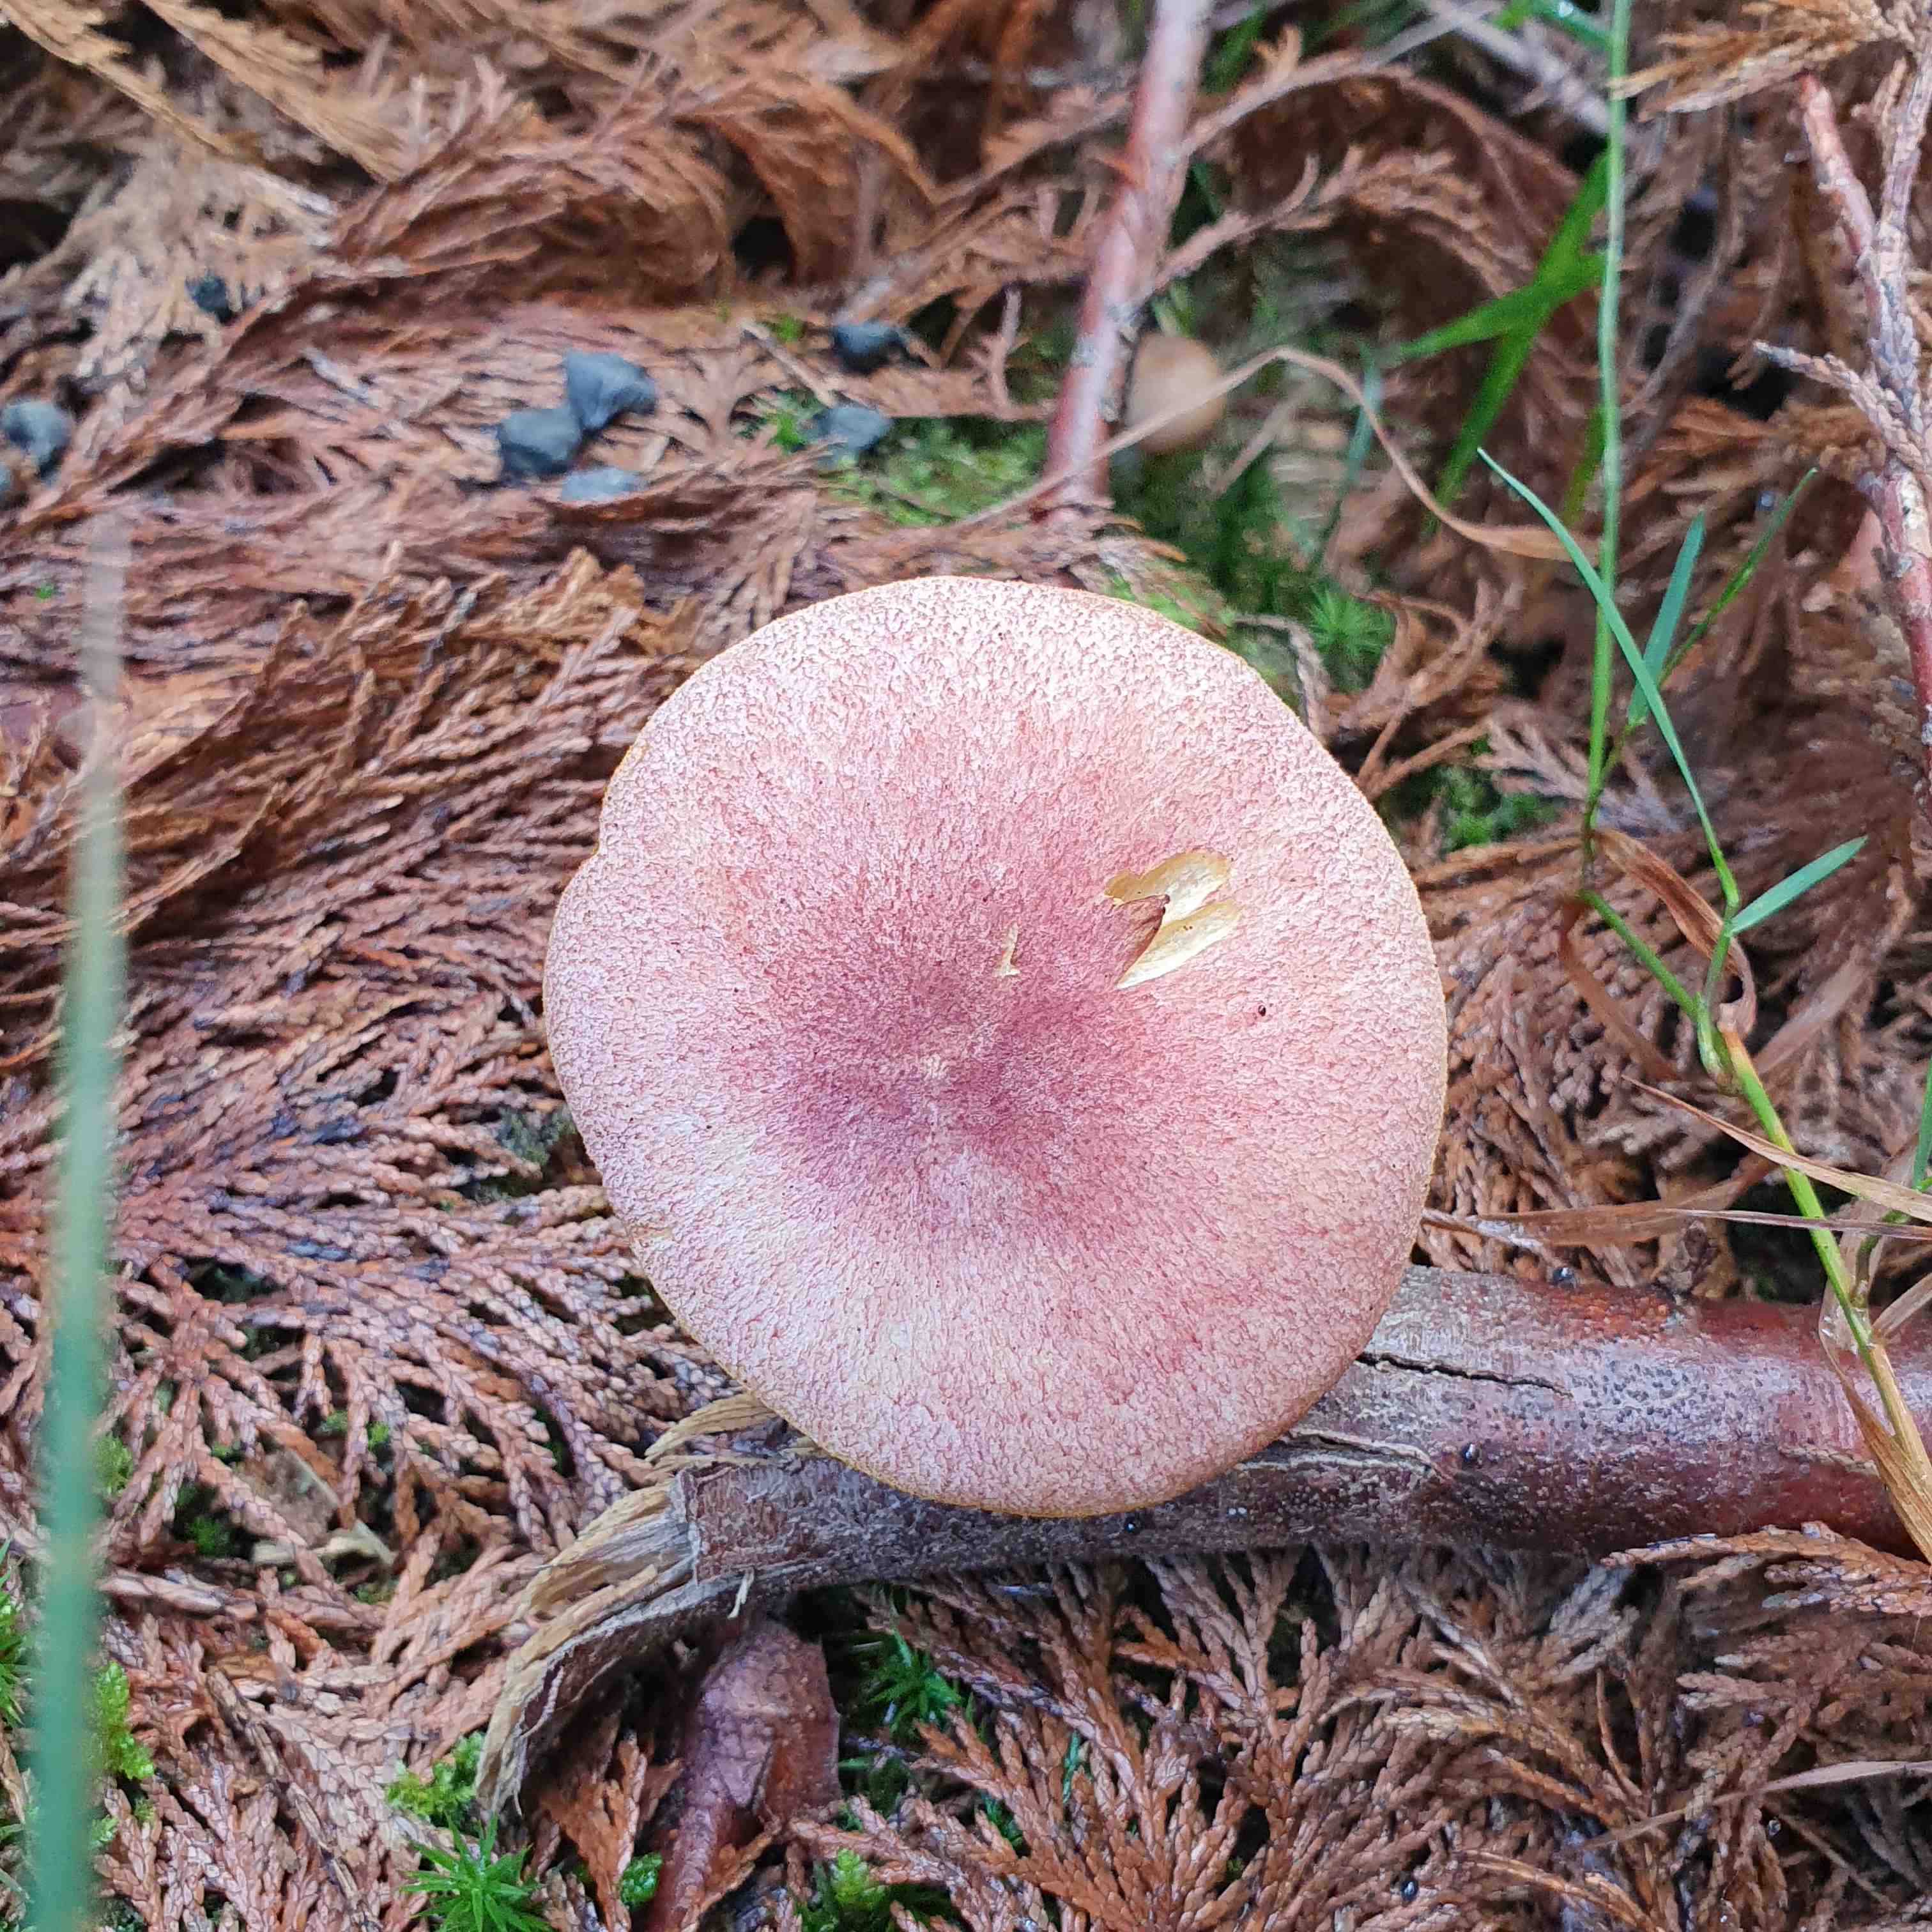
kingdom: Fungi
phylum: Basidiomycota
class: Agaricomycetes
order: Agaricales
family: Tricholomataceae
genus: Tricholomopsis
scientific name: Tricholomopsis rutilans
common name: purpur-væbnerhat
